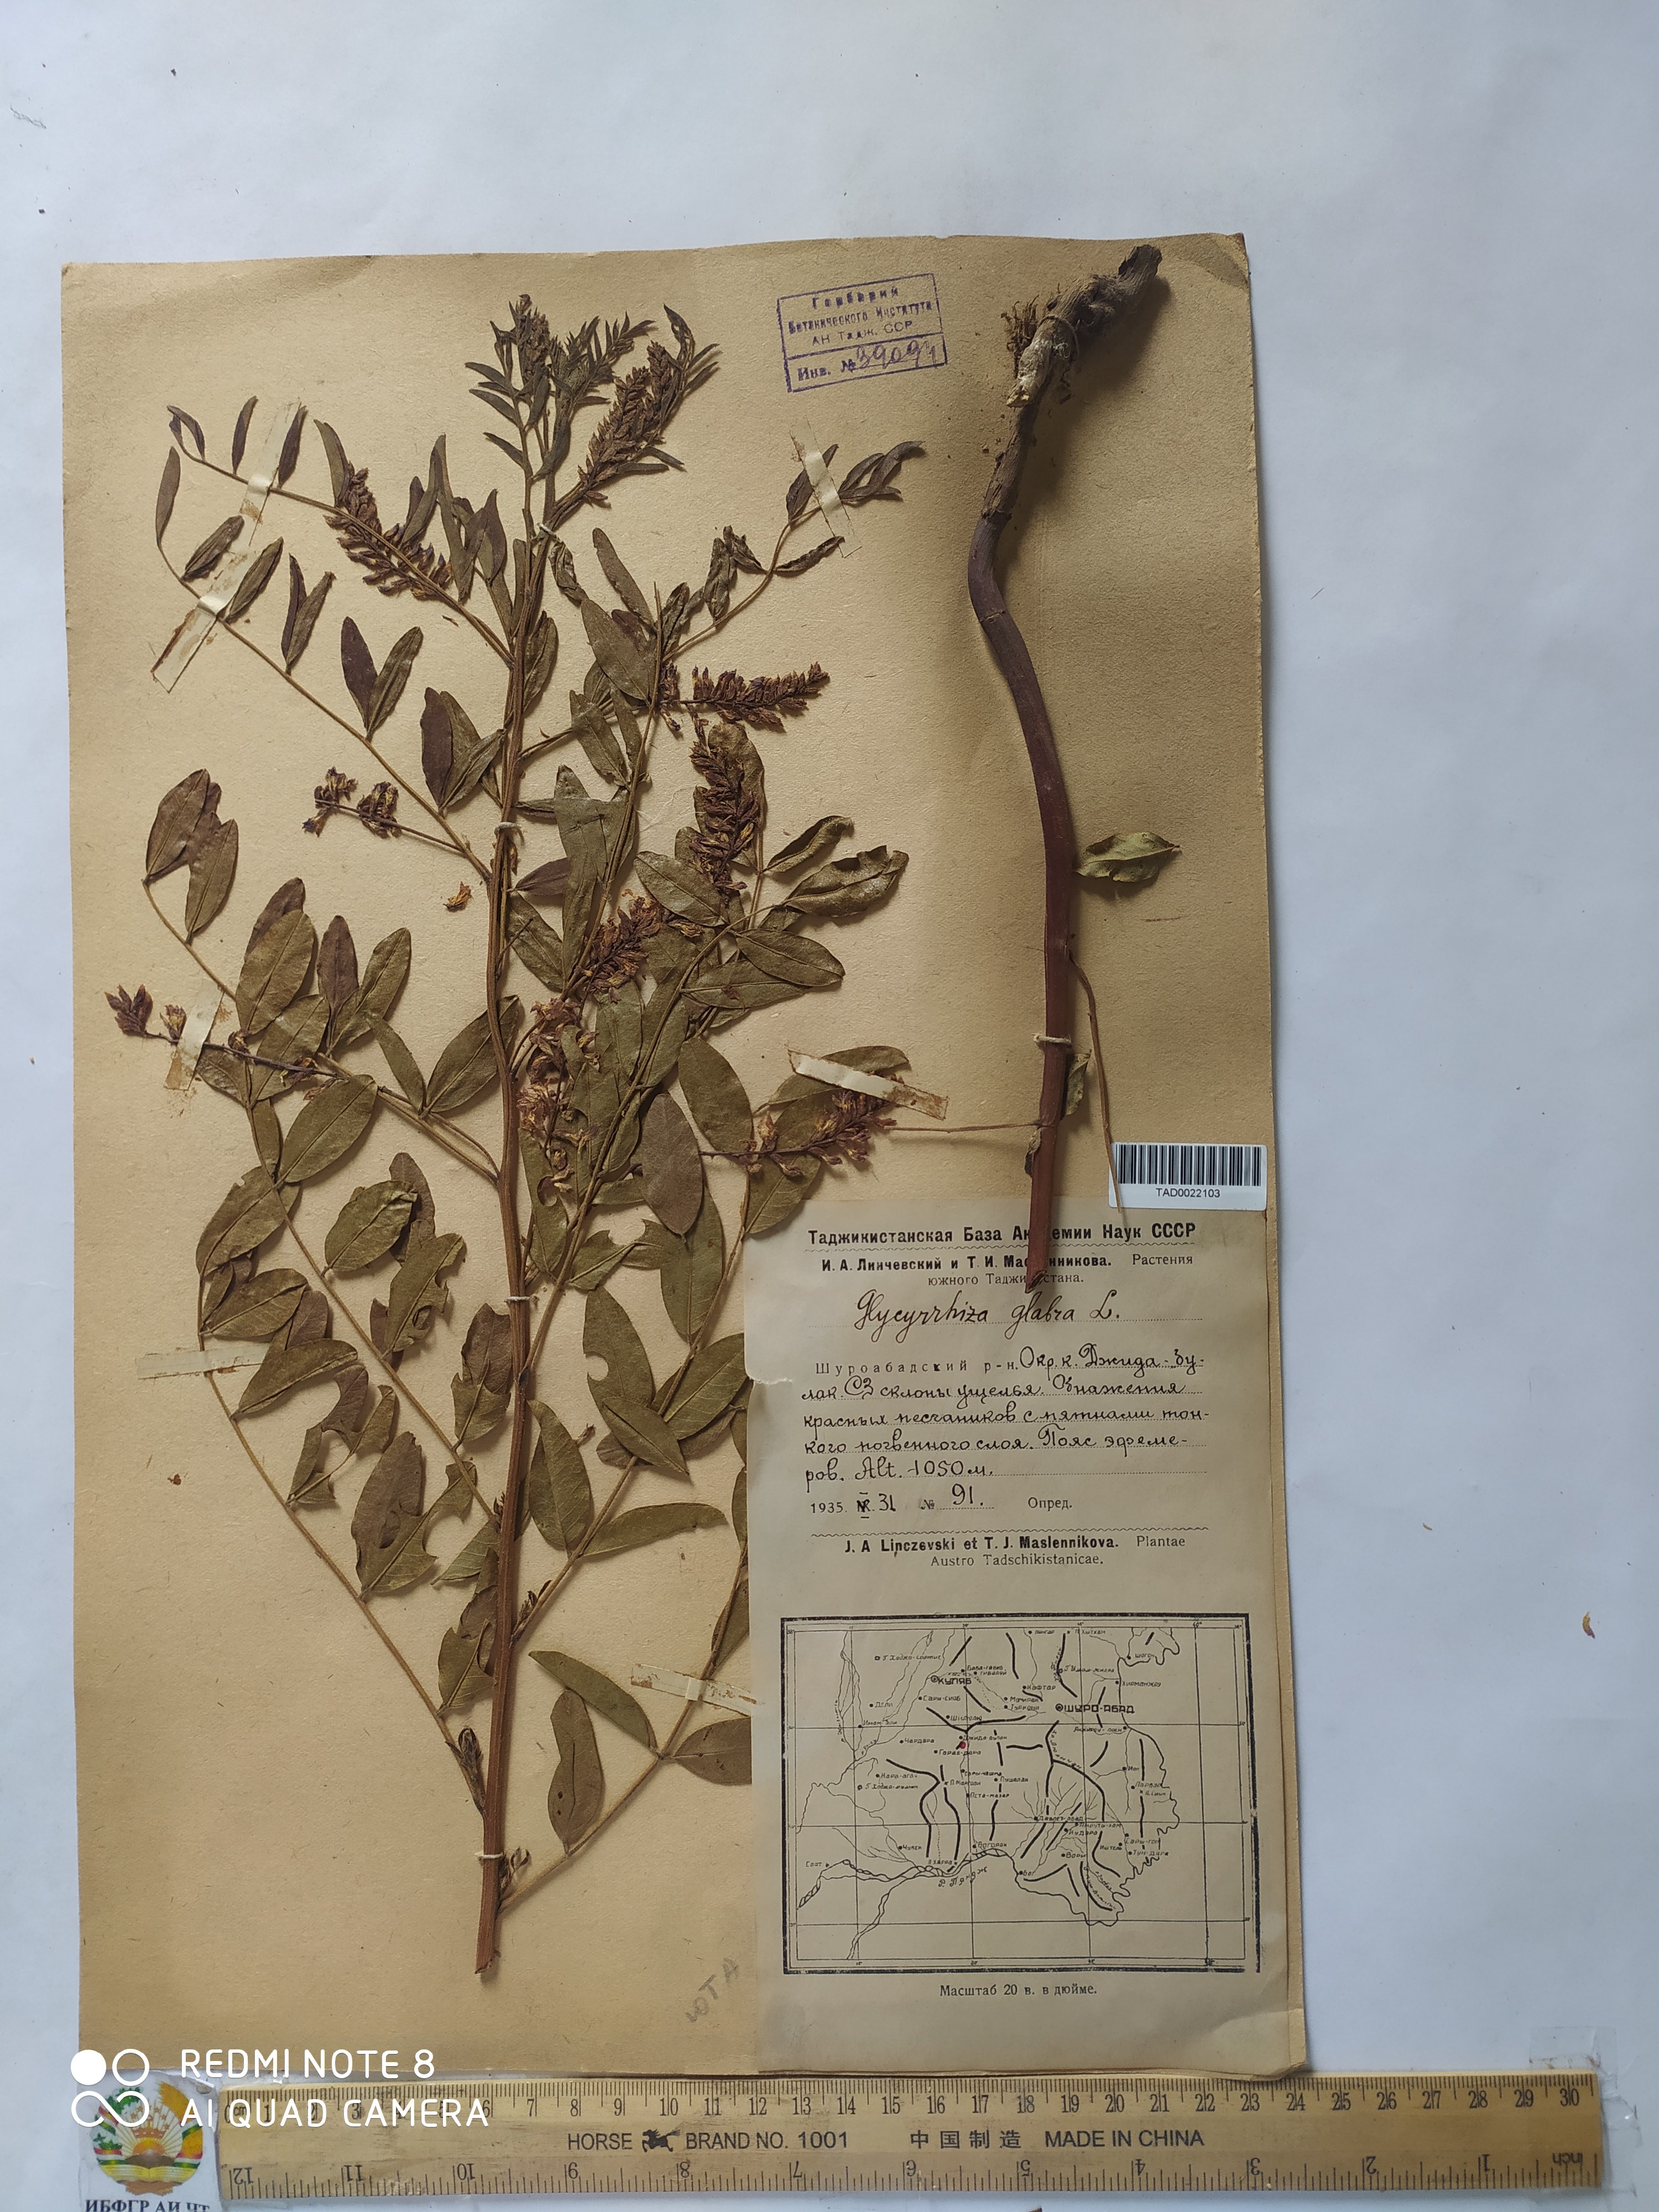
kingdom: Plantae
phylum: Tracheophyta
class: Magnoliopsida
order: Fabales
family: Fabaceae
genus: Glycyrrhiza
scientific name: Glycyrrhiza glabra
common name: Liquorice
